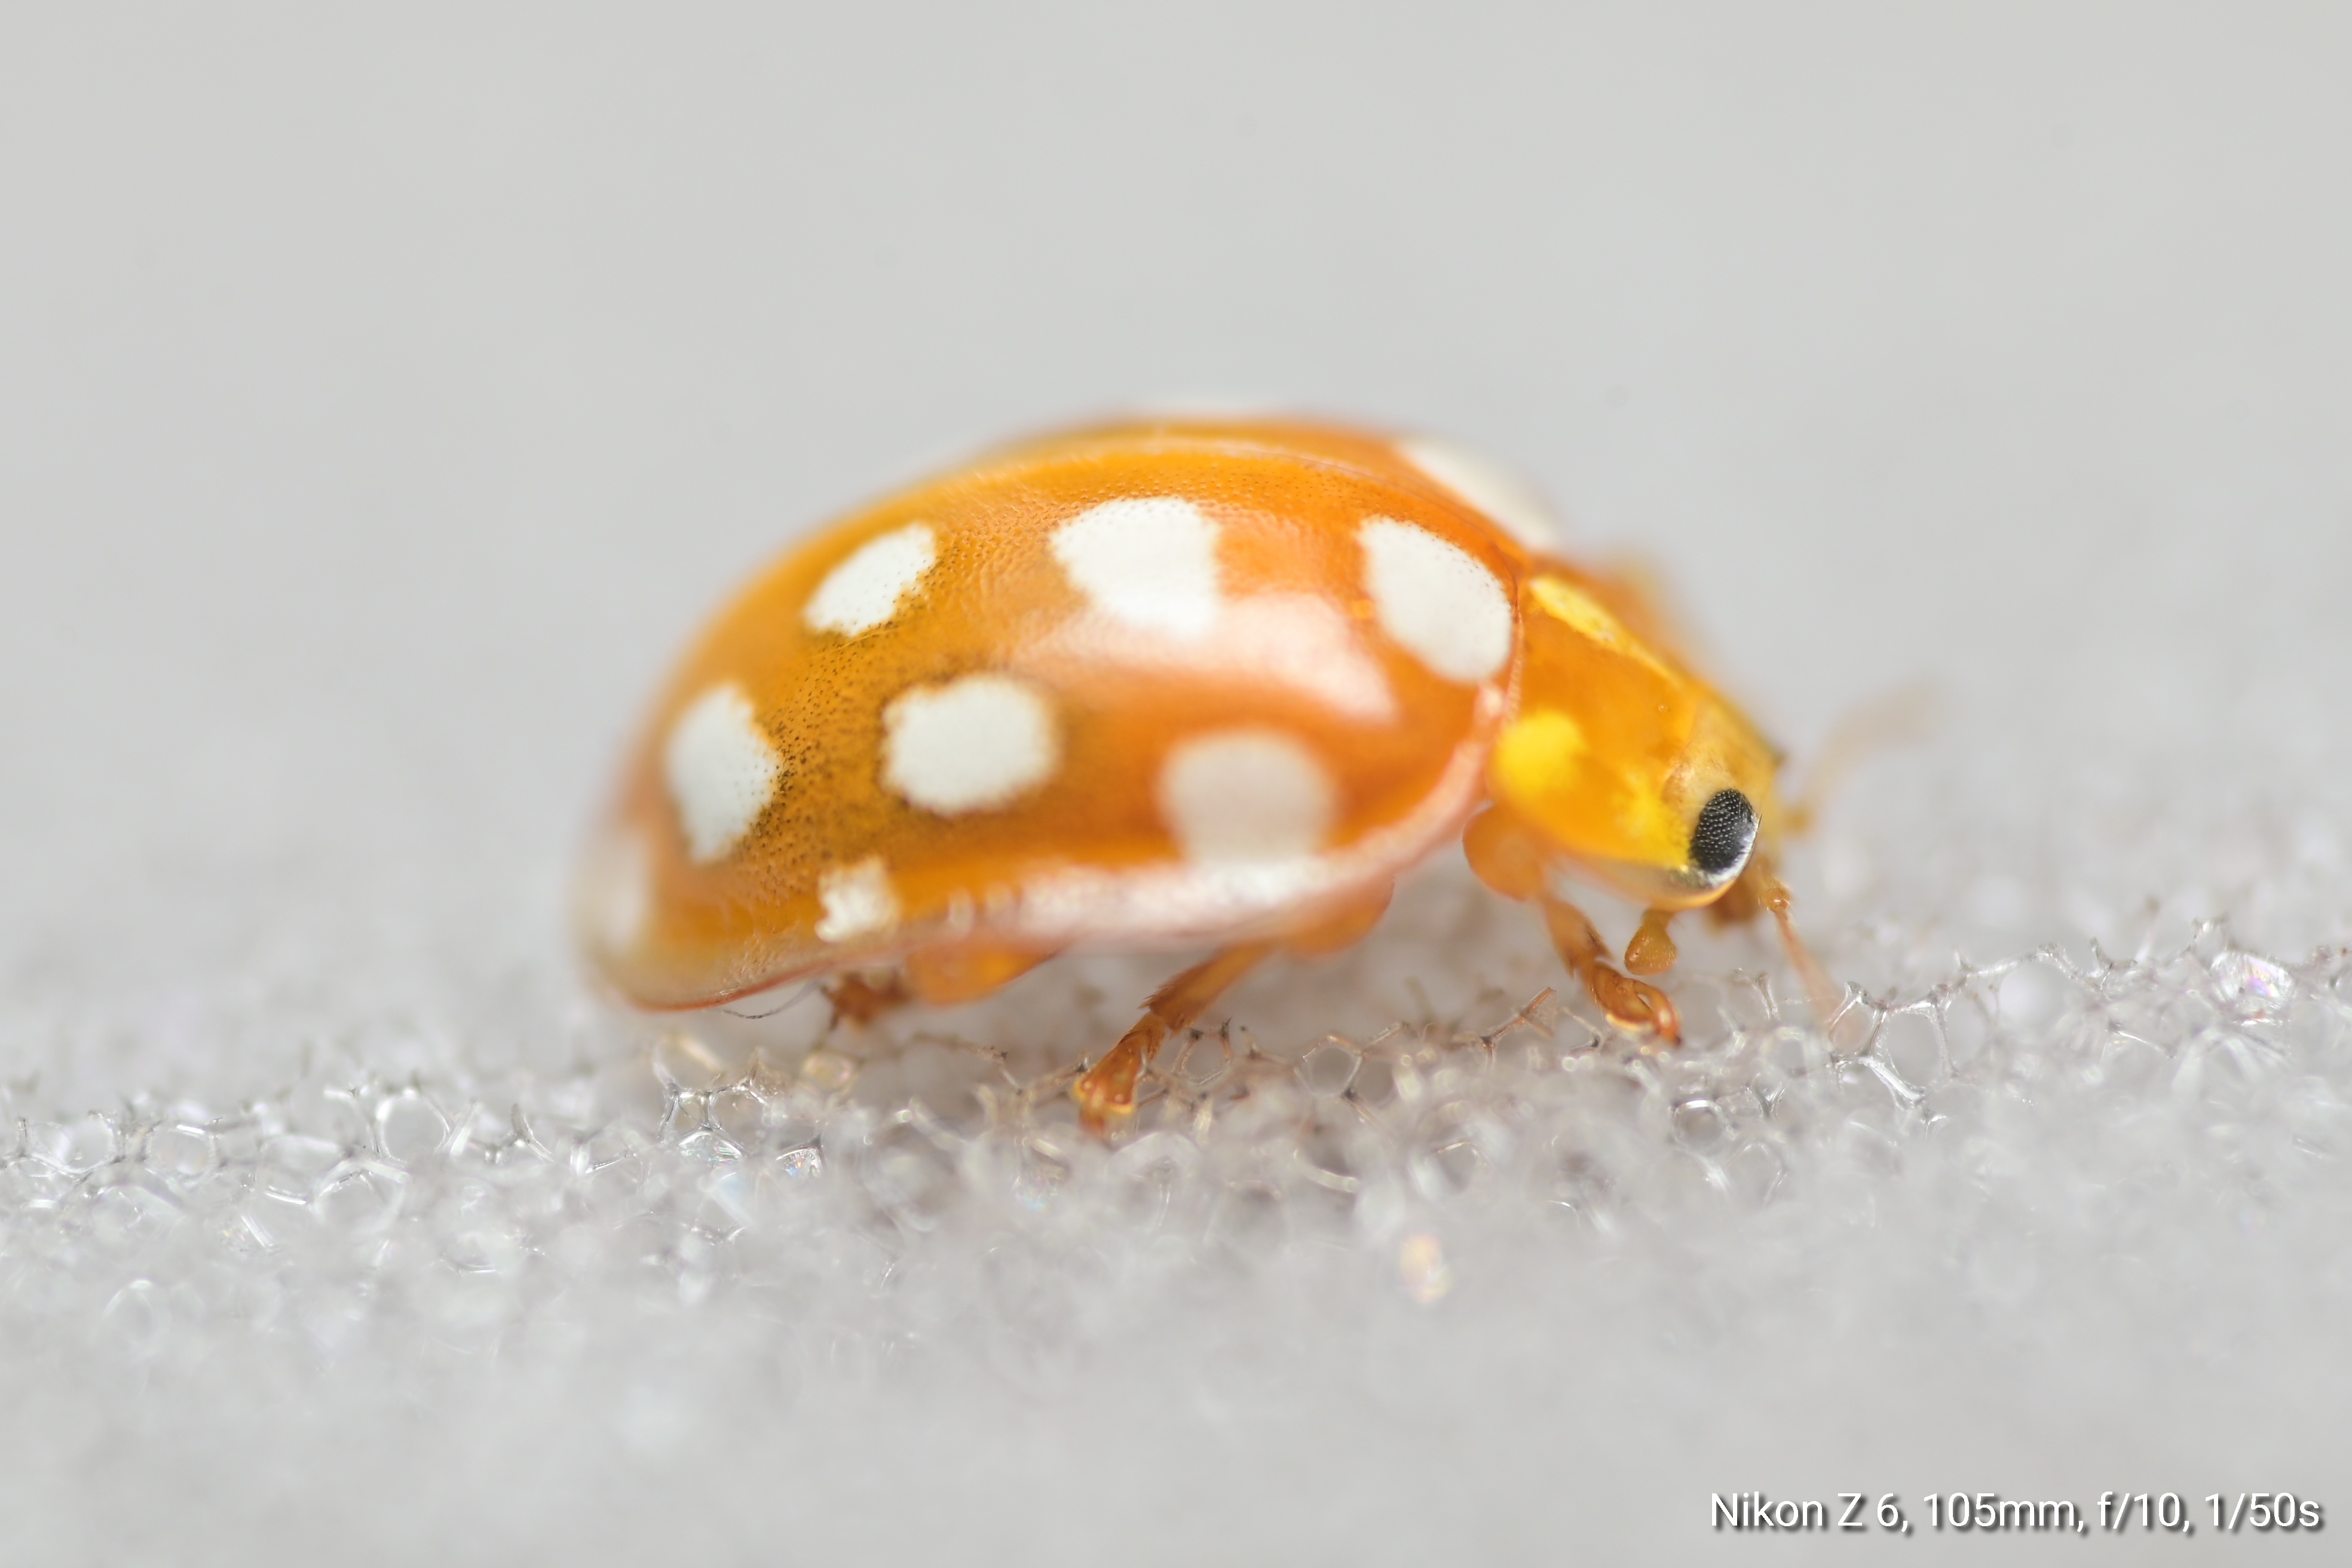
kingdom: Animalia
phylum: Arthropoda
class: Insecta
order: Coleoptera
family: Coccinellidae
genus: Halyzia
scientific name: Halyzia sedecimguttata
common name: Orange ladybird
